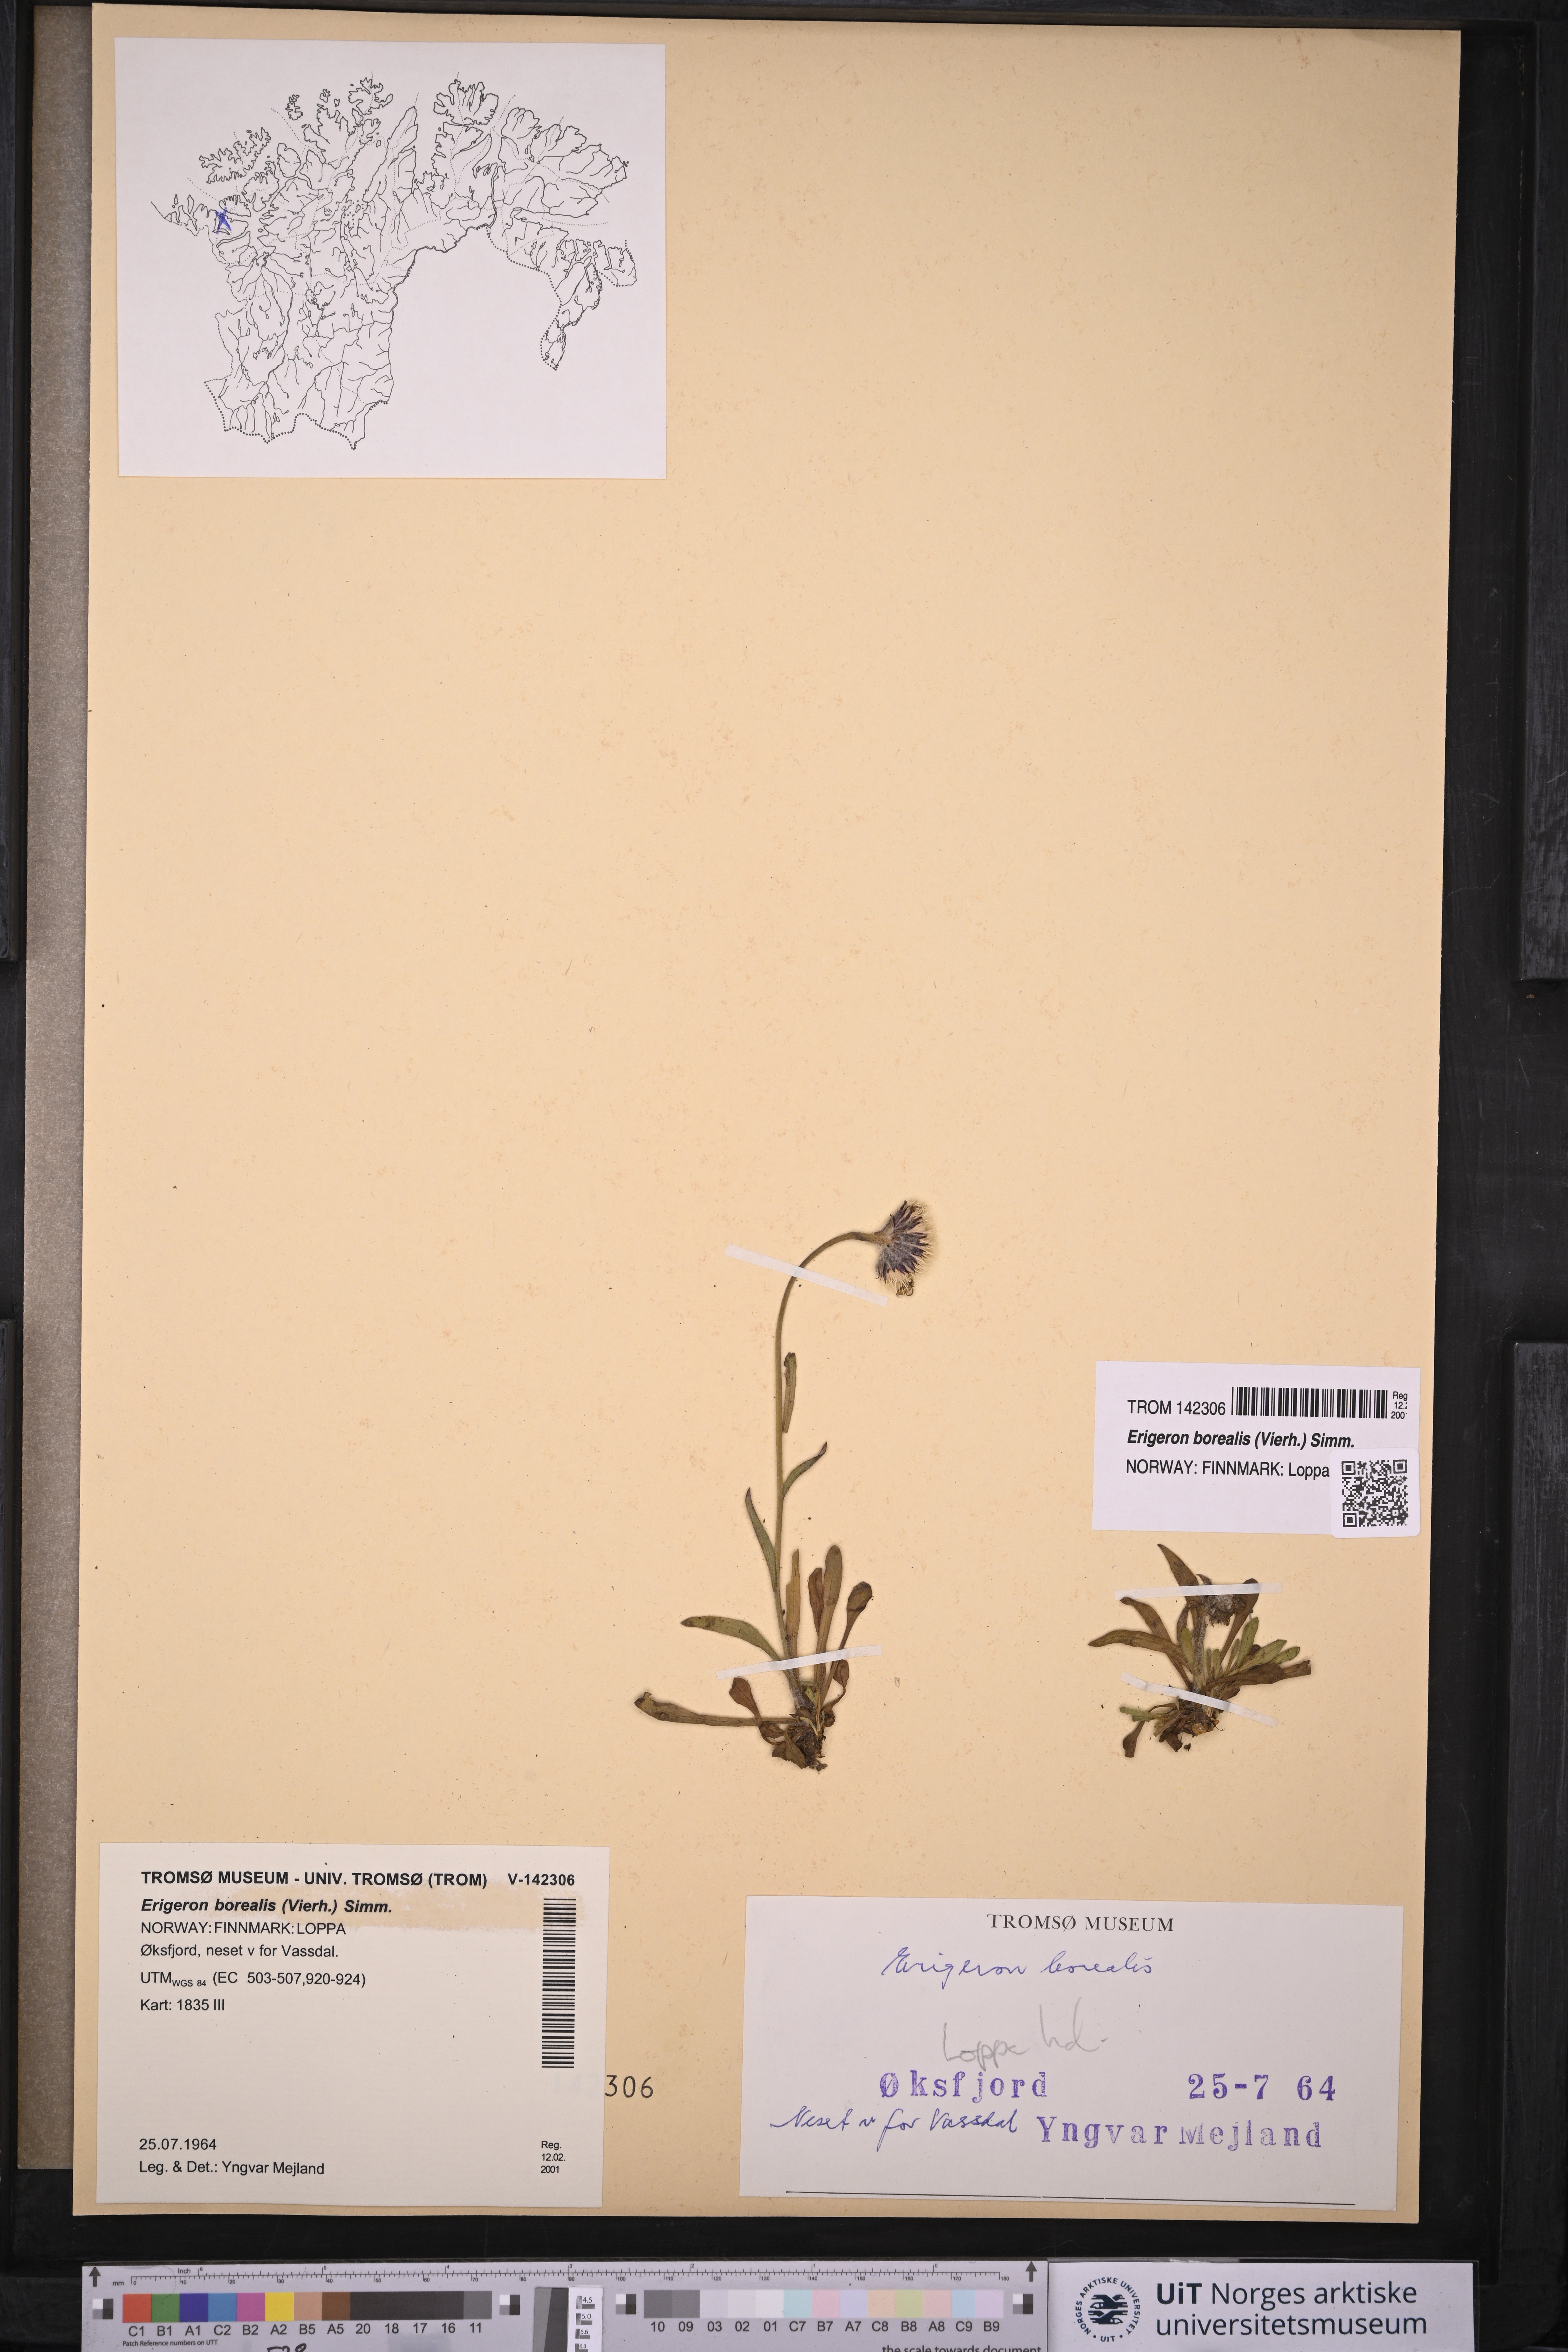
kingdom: Plantae
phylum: Tracheophyta
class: Magnoliopsida
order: Asterales
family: Asteraceae
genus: Erigeron
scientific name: Erigeron borealis
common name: Alpine fleabane
